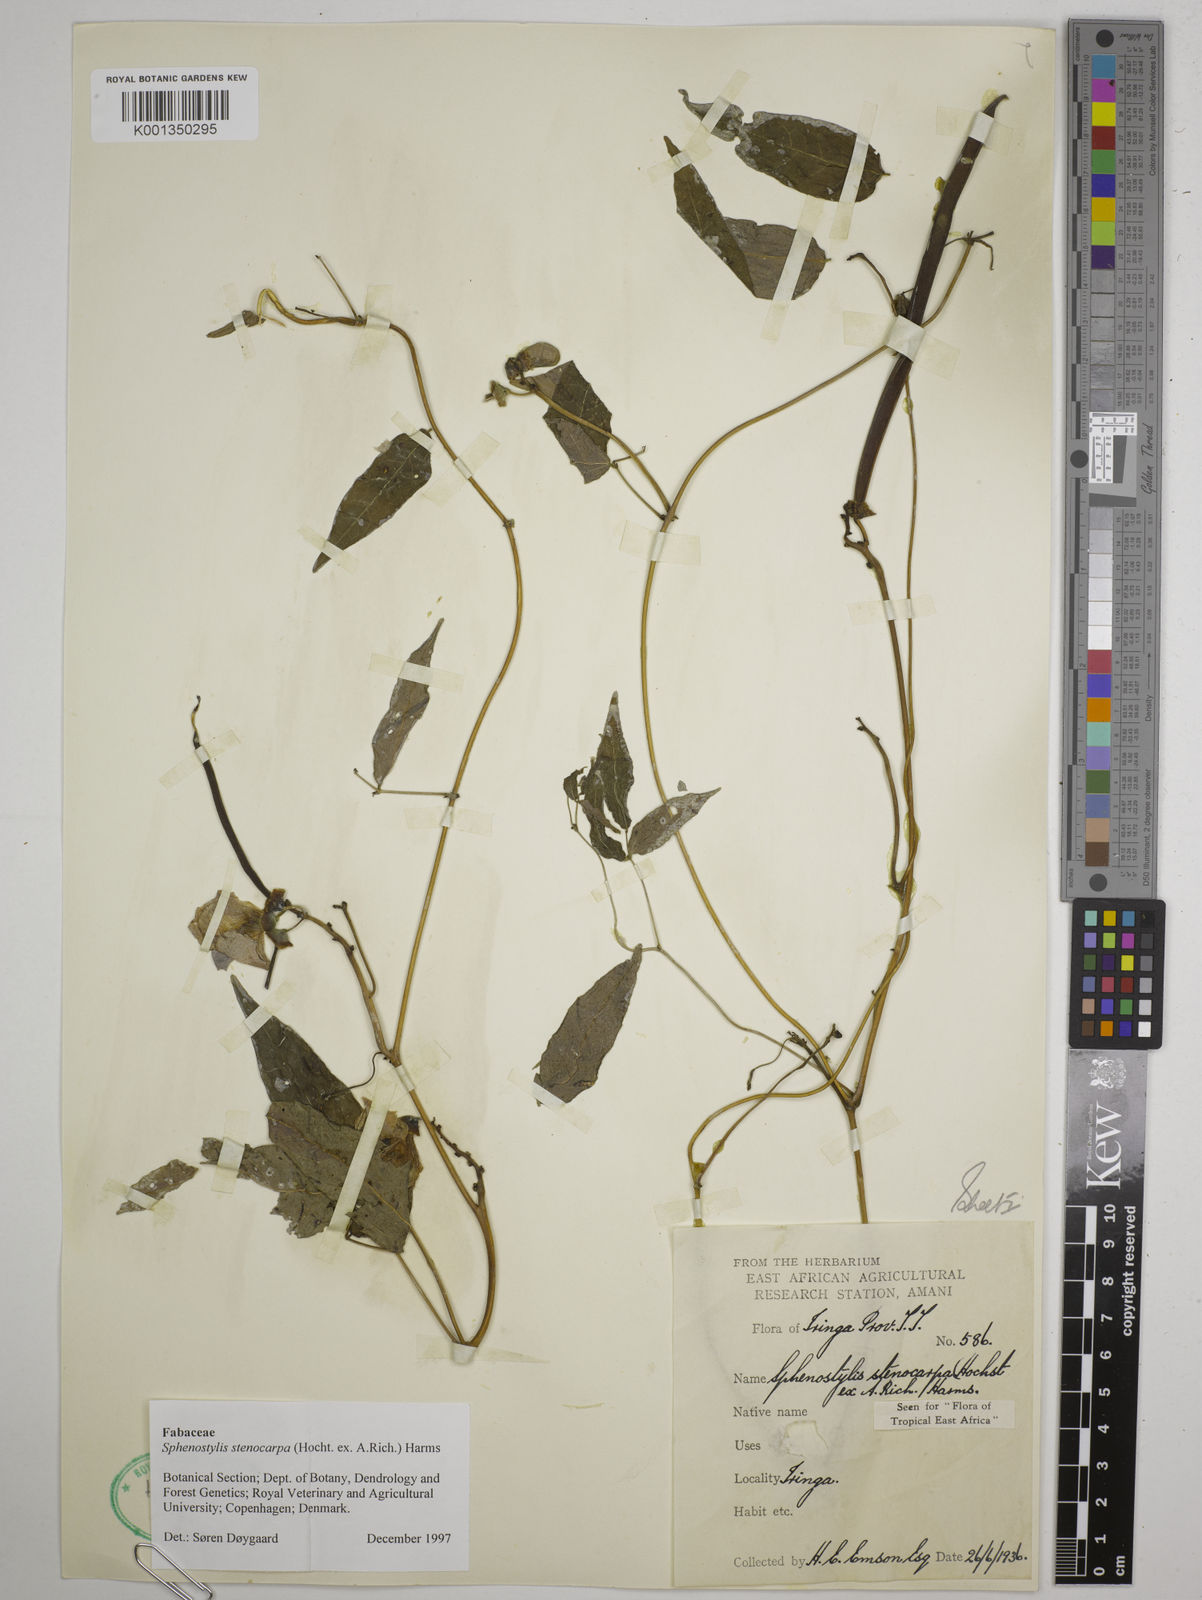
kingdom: Plantae
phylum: Tracheophyta
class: Magnoliopsida
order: Fabales
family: Fabaceae
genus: Sphenostylis
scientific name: Sphenostylis stenocarpa
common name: Yam-pea
